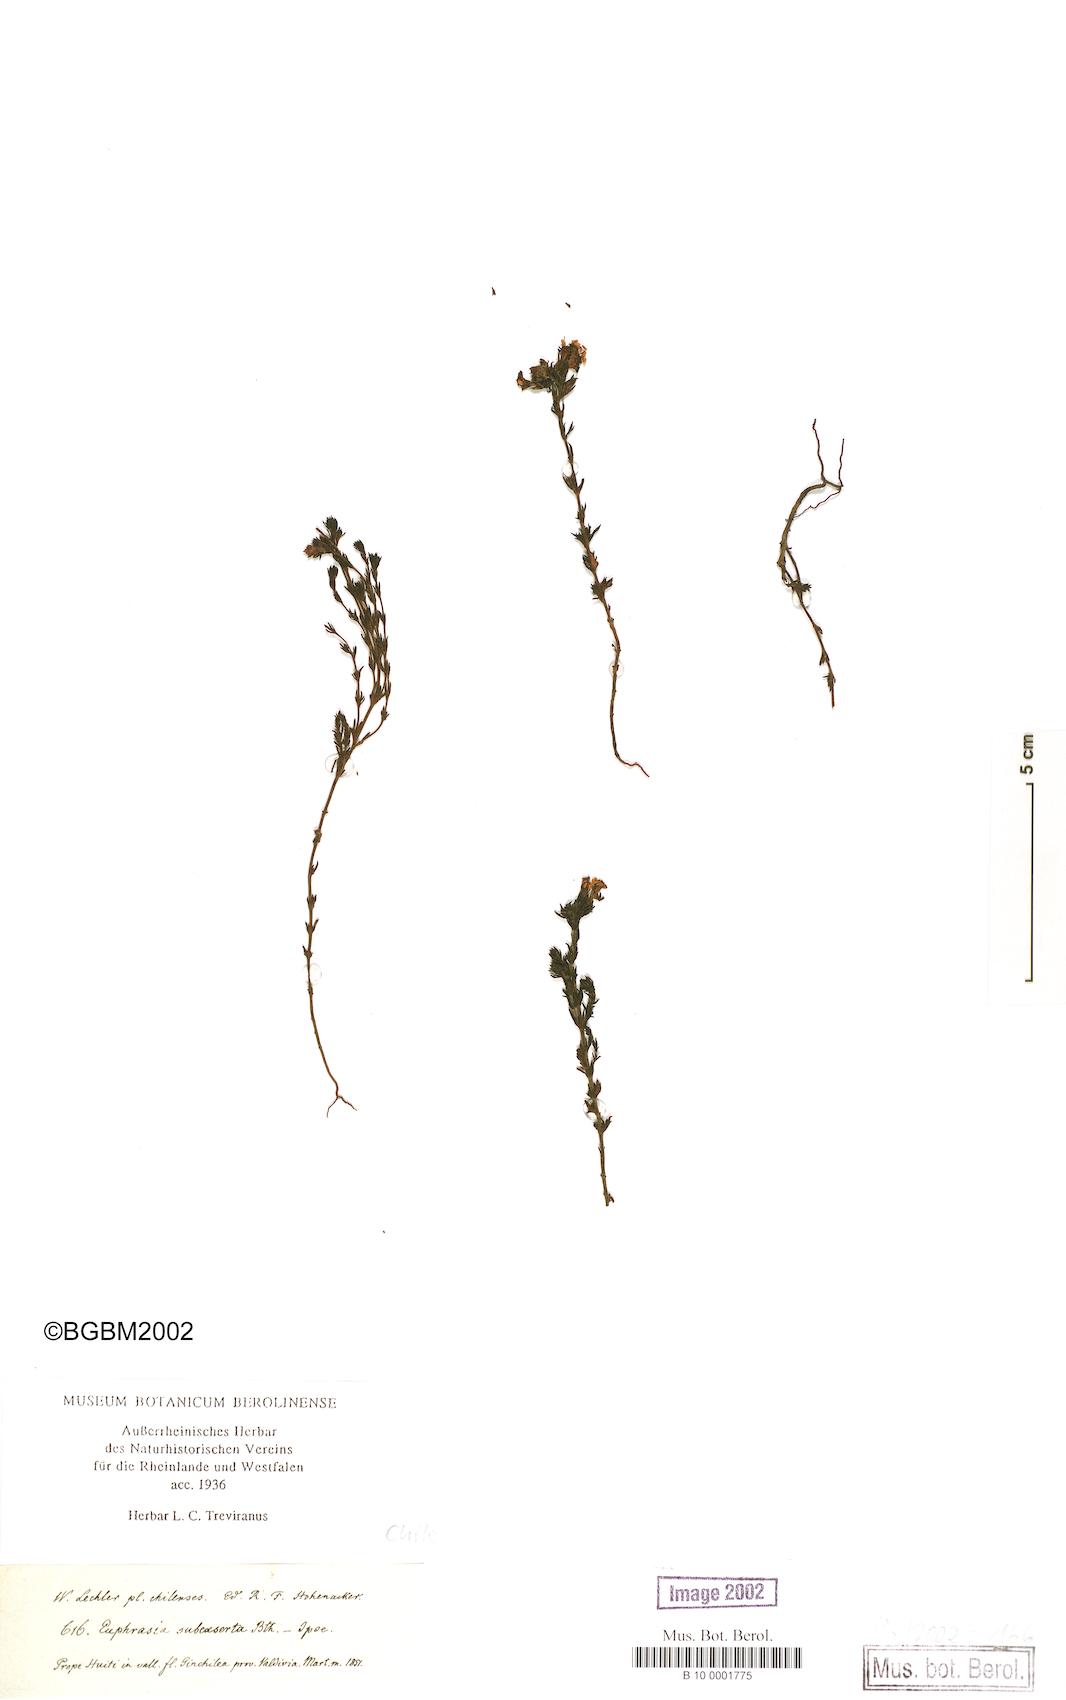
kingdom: Plantae
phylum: Tracheophyta
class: Magnoliopsida
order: Lamiales
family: Orobanchaceae
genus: Euphrasia
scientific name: Euphrasia subexserta
